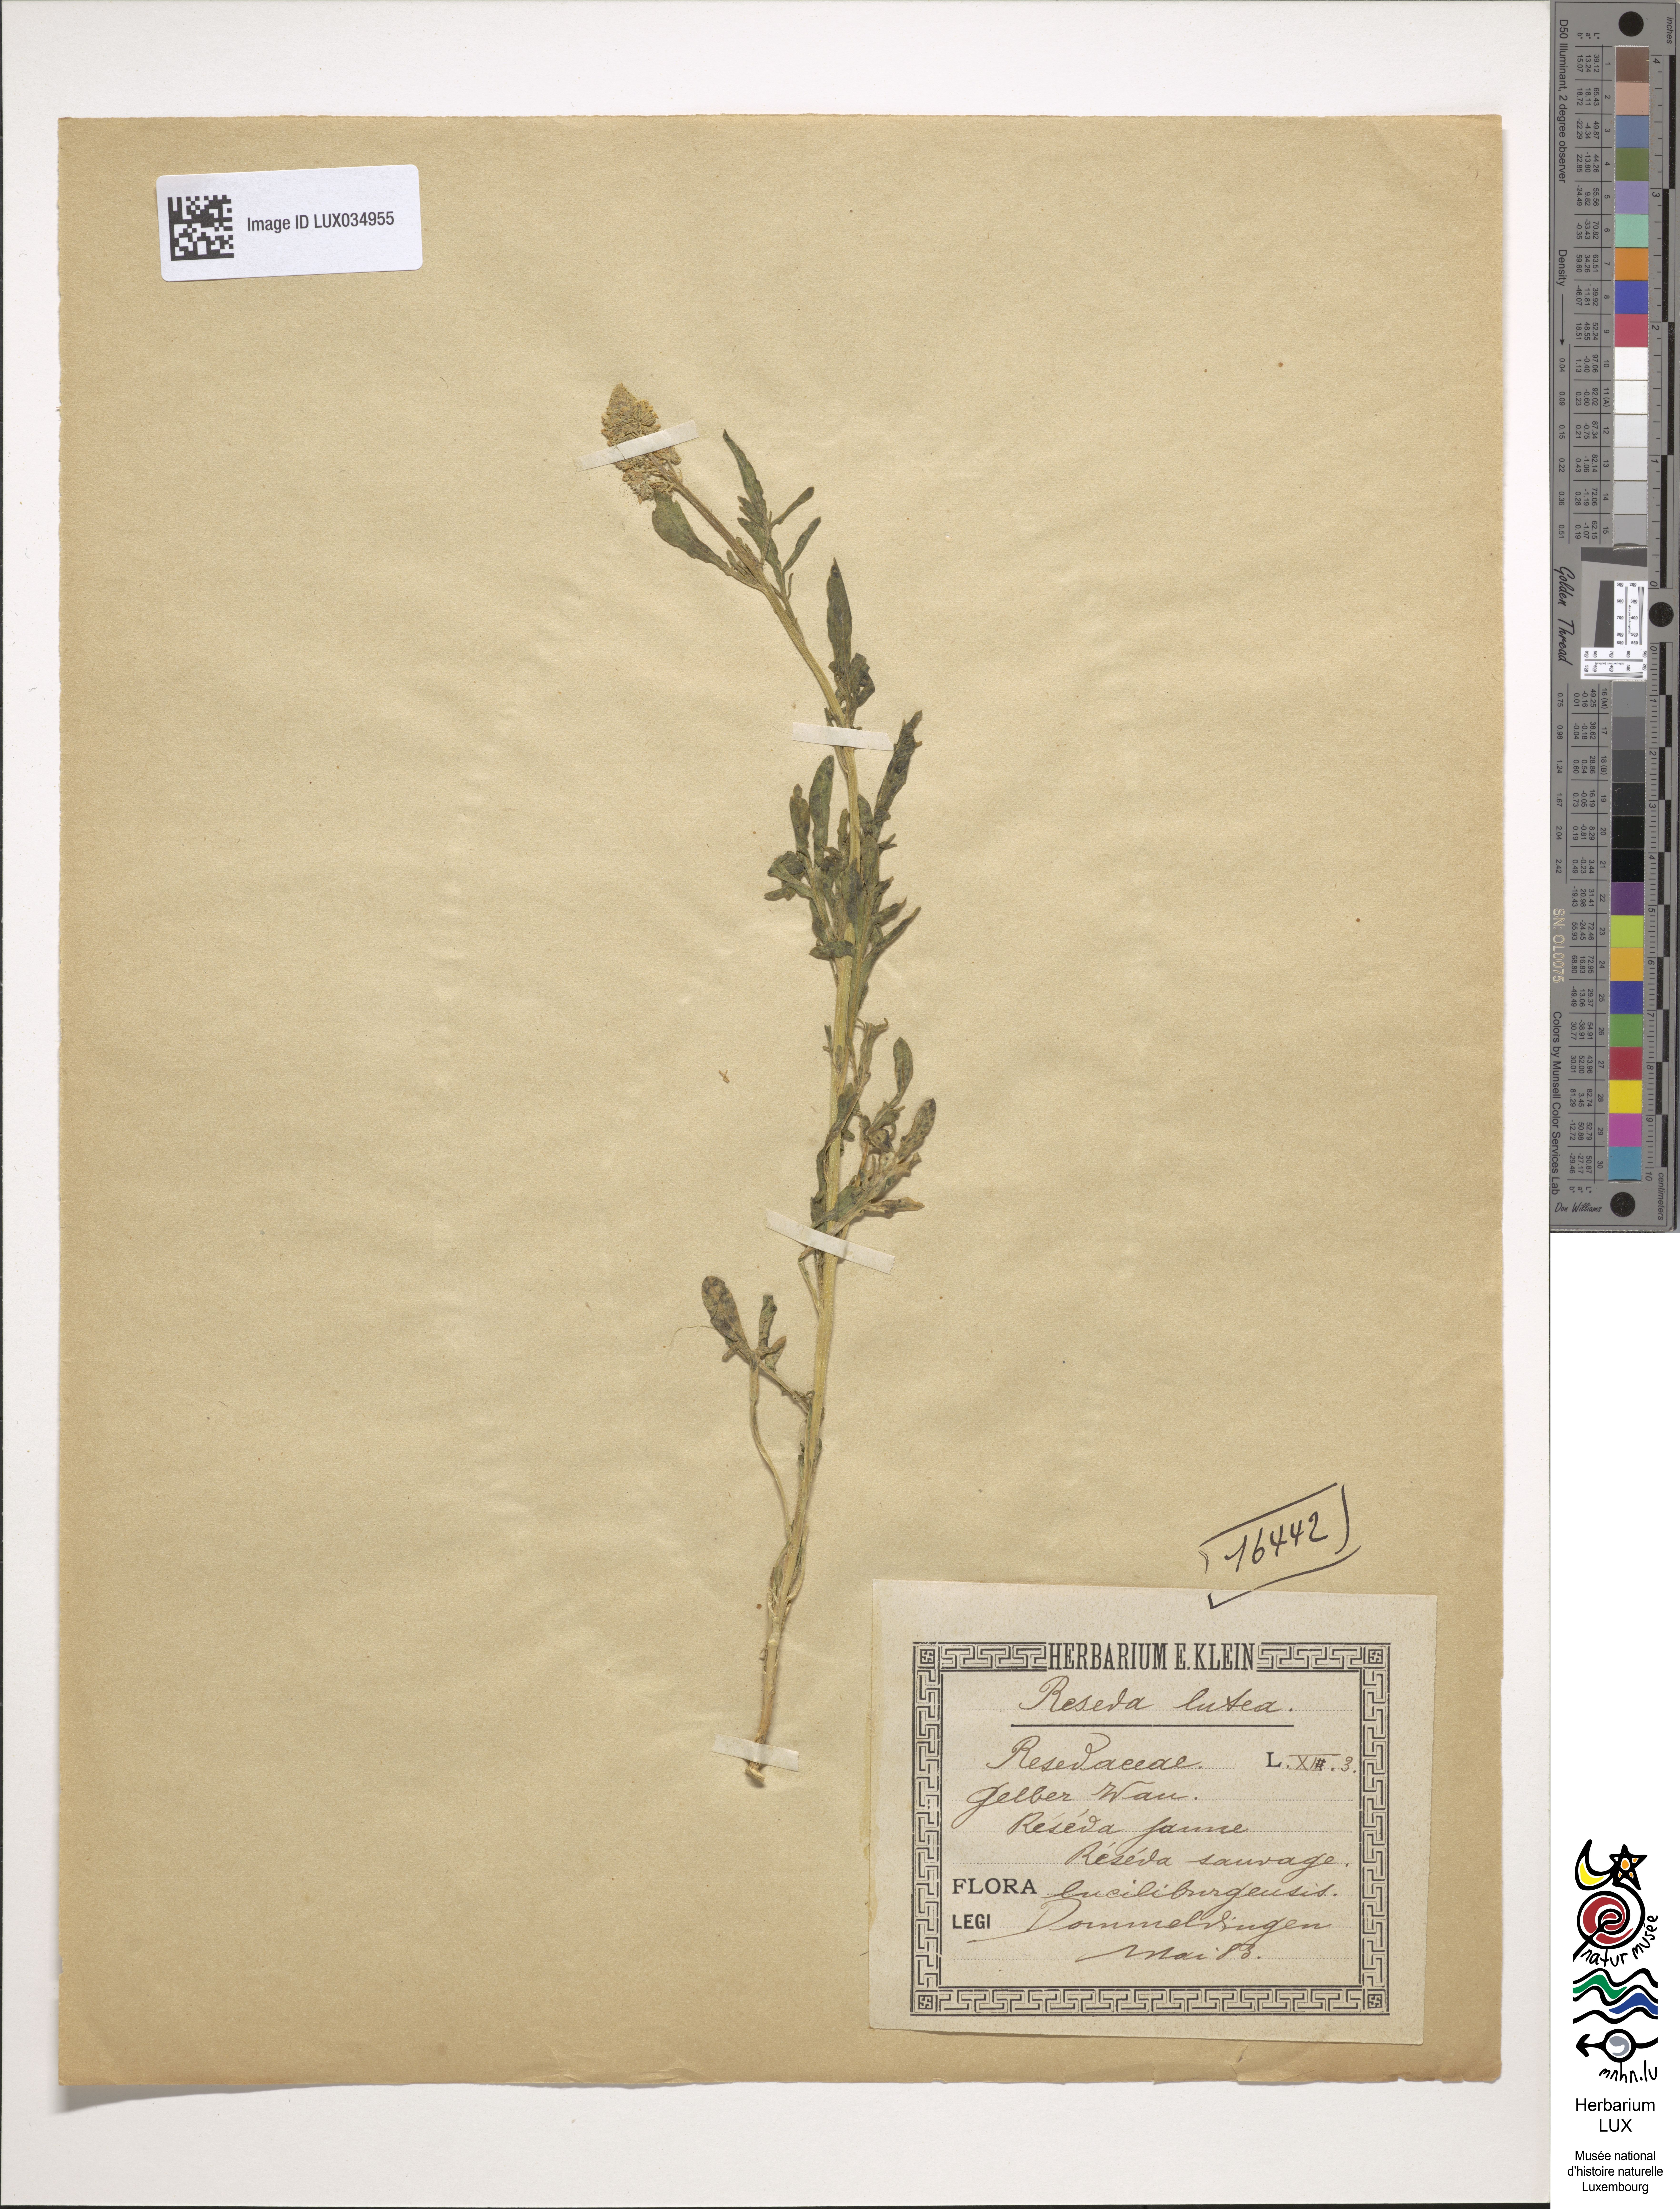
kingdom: Plantae
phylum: Tracheophyta
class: Magnoliopsida
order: Brassicales
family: Resedaceae
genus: Reseda
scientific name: Reseda lutea
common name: Wild mignonette
